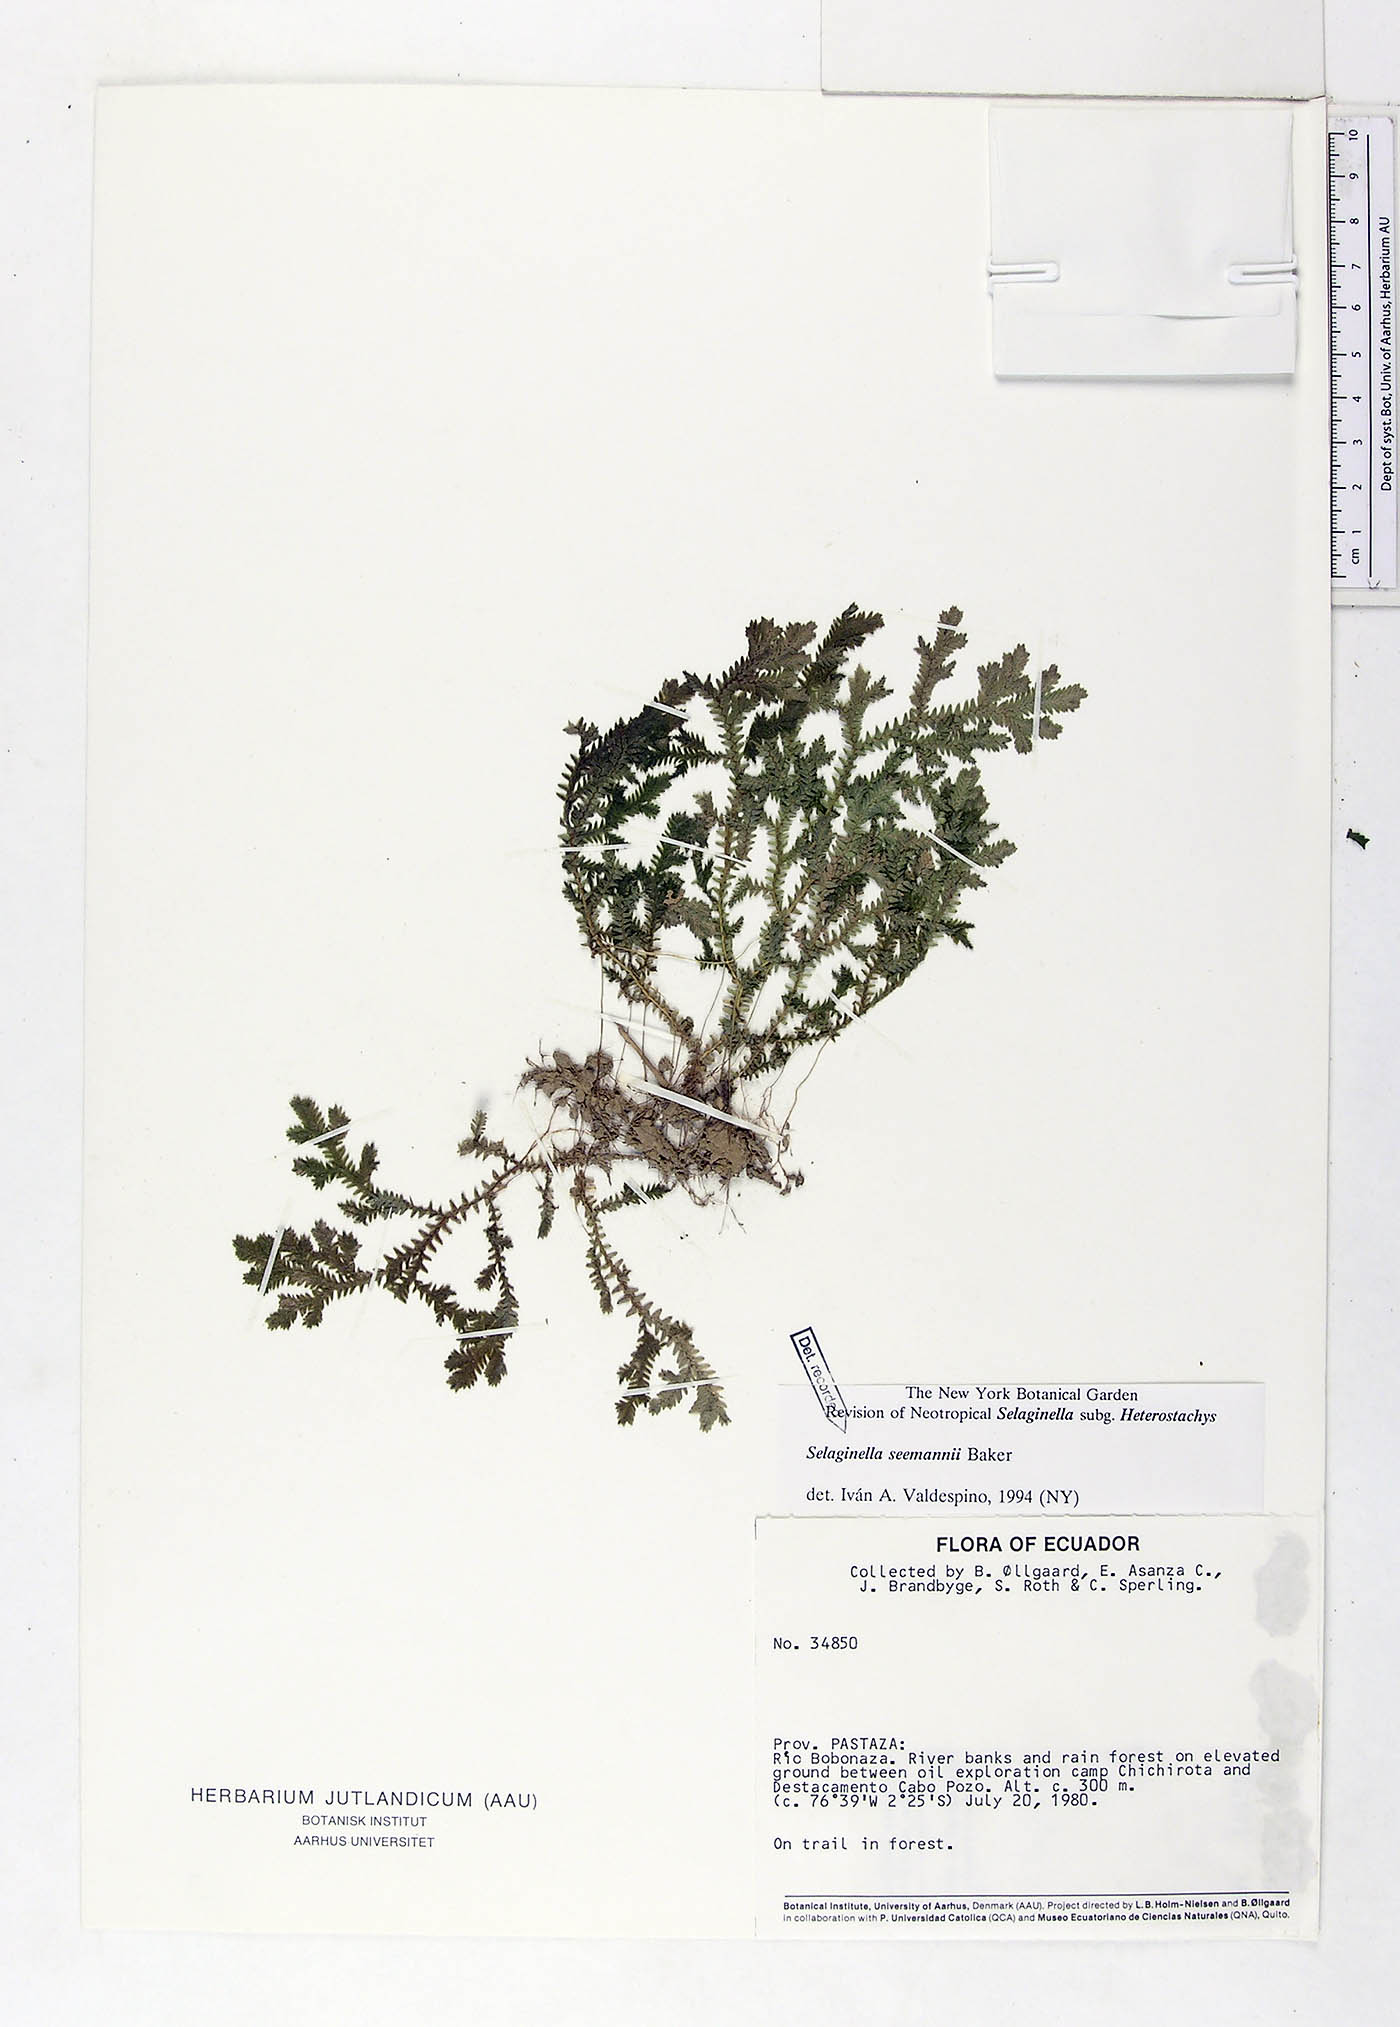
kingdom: Plantae
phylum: Tracheophyta
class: Lycopodiopsida
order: Selaginellales
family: Selaginellaceae
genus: Selaginella
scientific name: Selaginella seemannii
